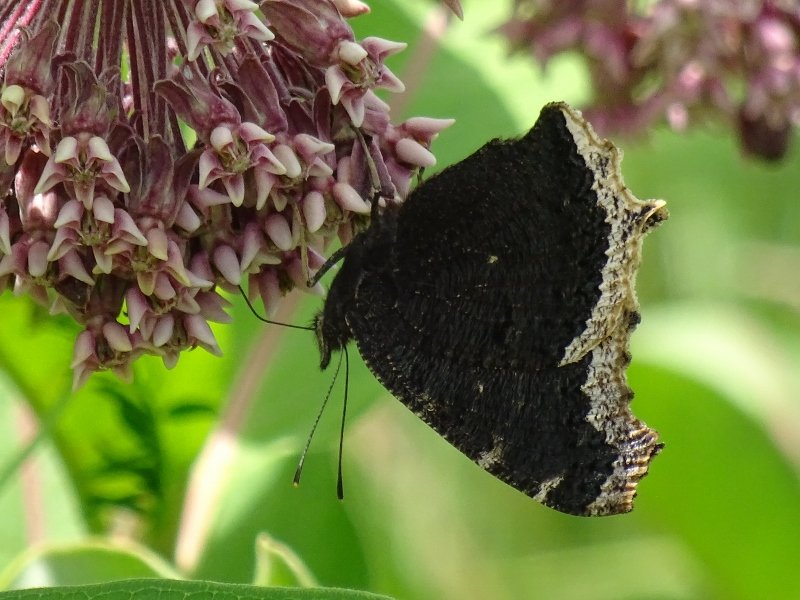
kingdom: Animalia
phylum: Arthropoda
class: Insecta
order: Lepidoptera
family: Nymphalidae
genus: Nymphalis
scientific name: Nymphalis antiopa
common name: Mourning Cloak
